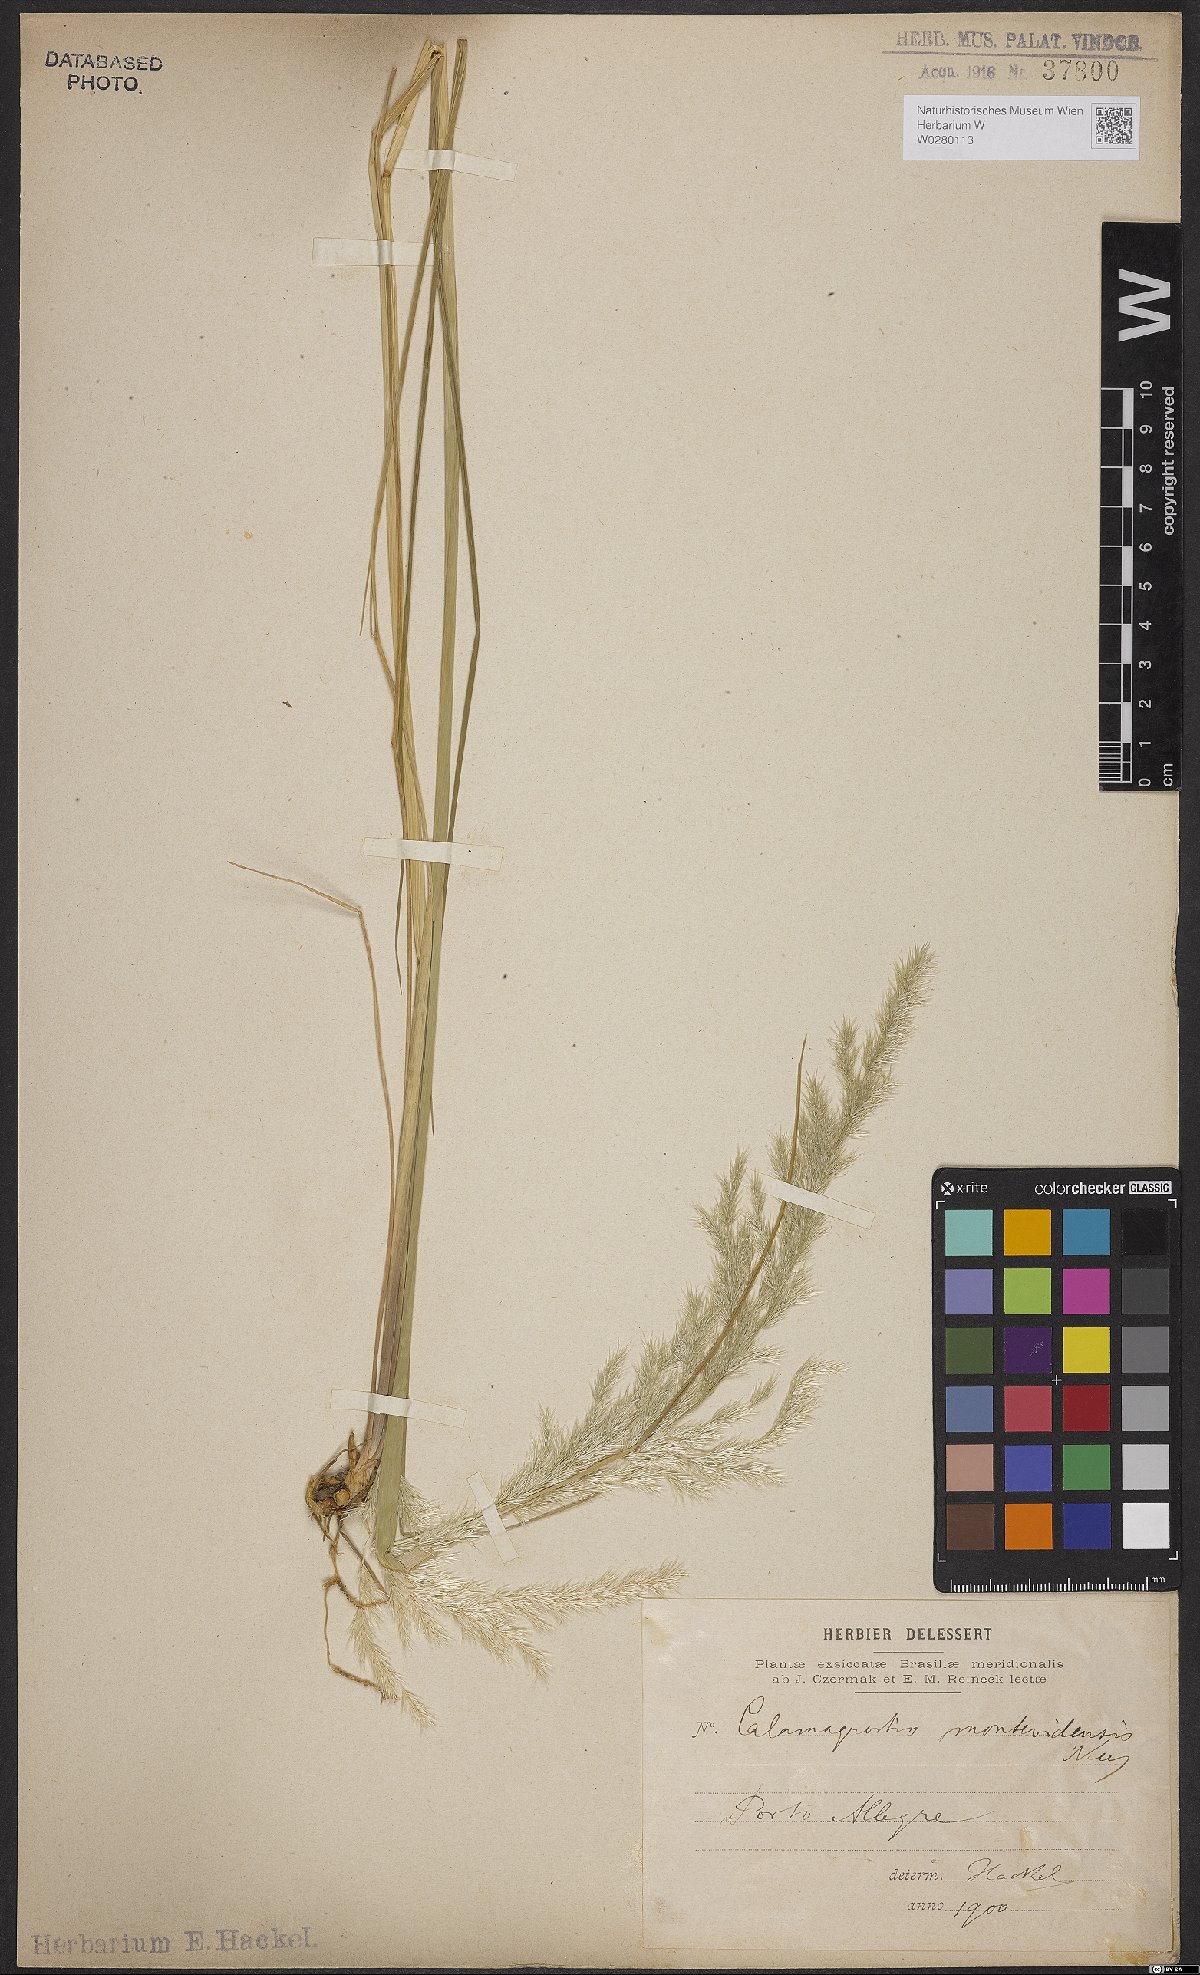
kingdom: Plantae
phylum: Tracheophyta
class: Liliopsida
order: Poales
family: Poaceae
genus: Cinnagrostis
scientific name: Cinnagrostis viridiflavescens
